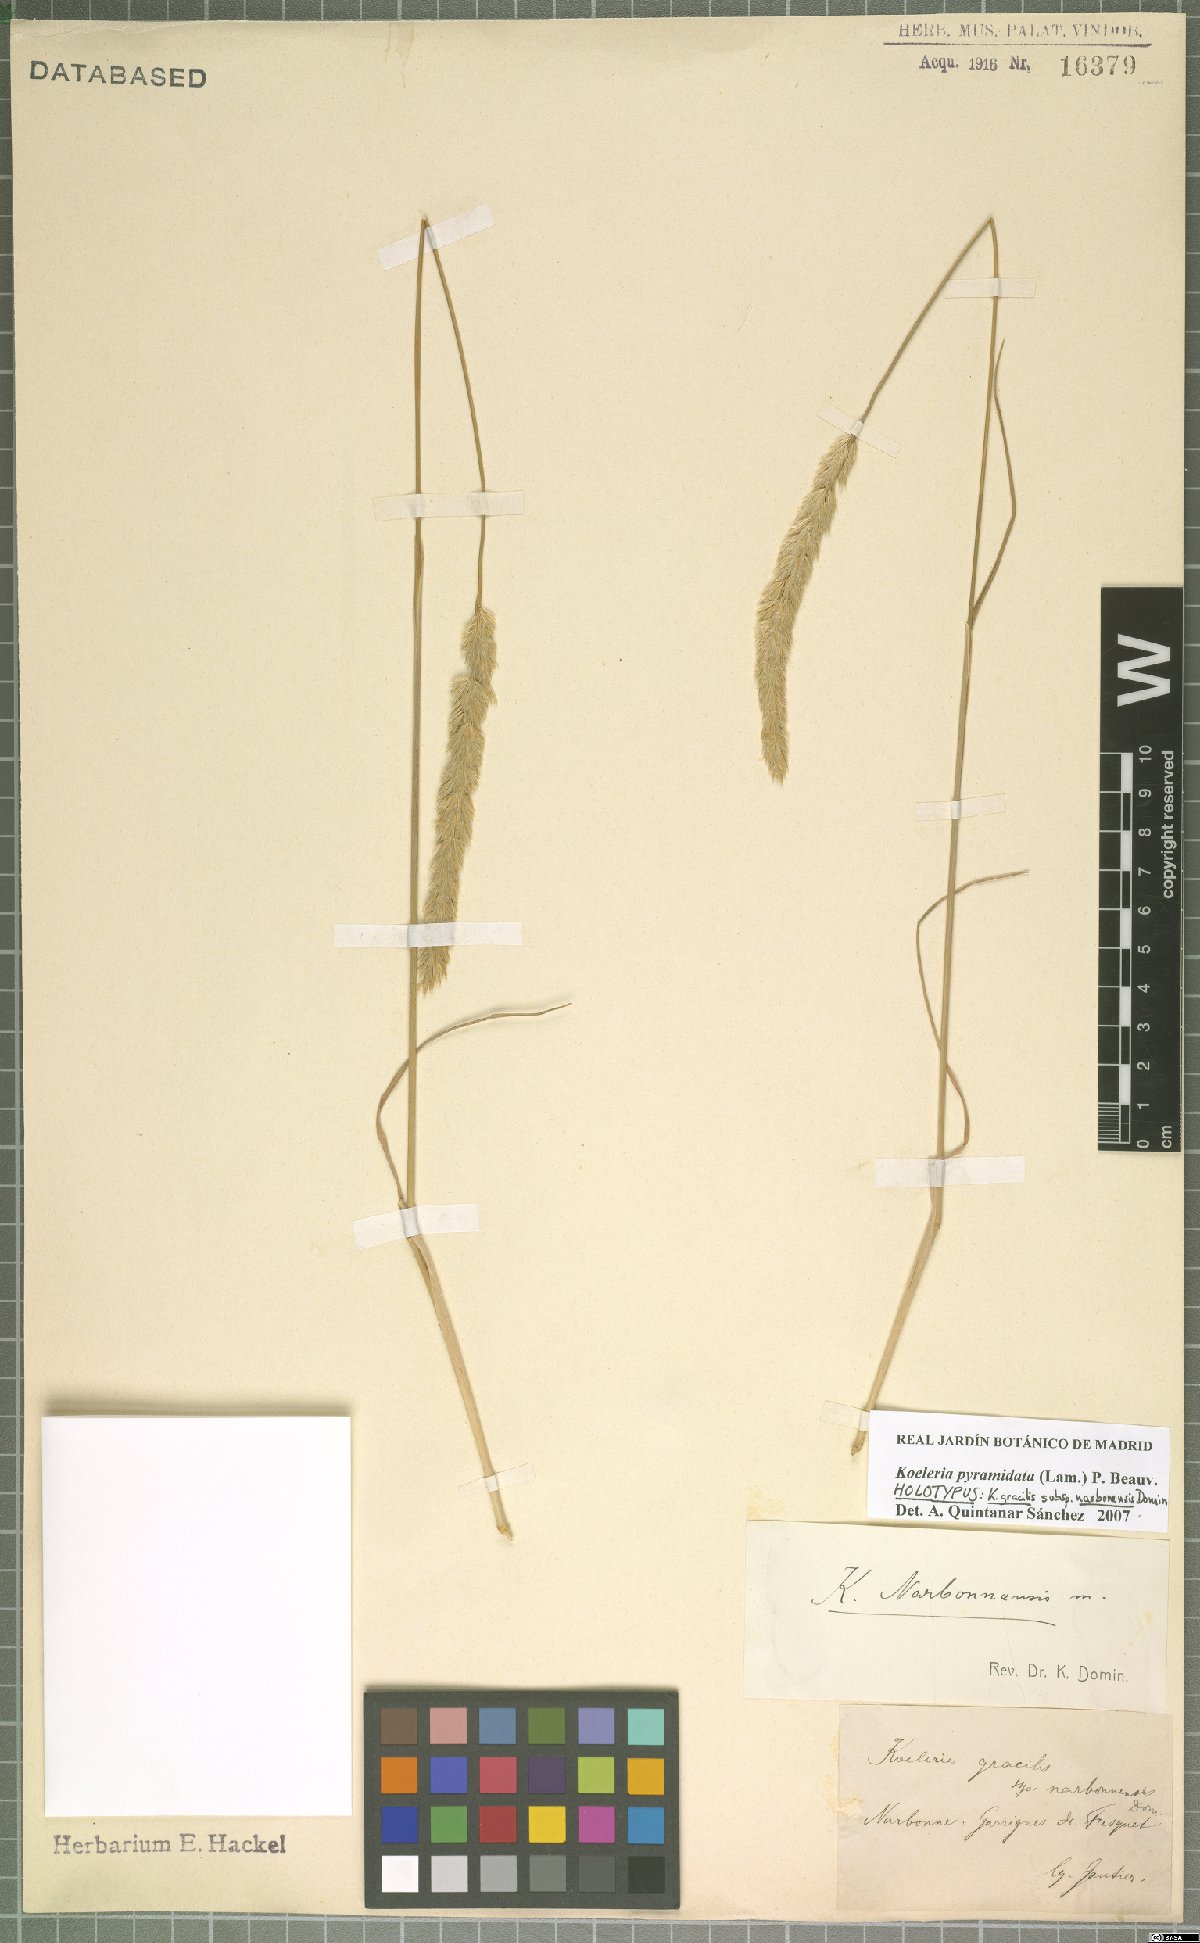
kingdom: Plantae
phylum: Tracheophyta
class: Liliopsida
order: Poales
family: Poaceae
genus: Koeleria
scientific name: Koeleria pyramidata
